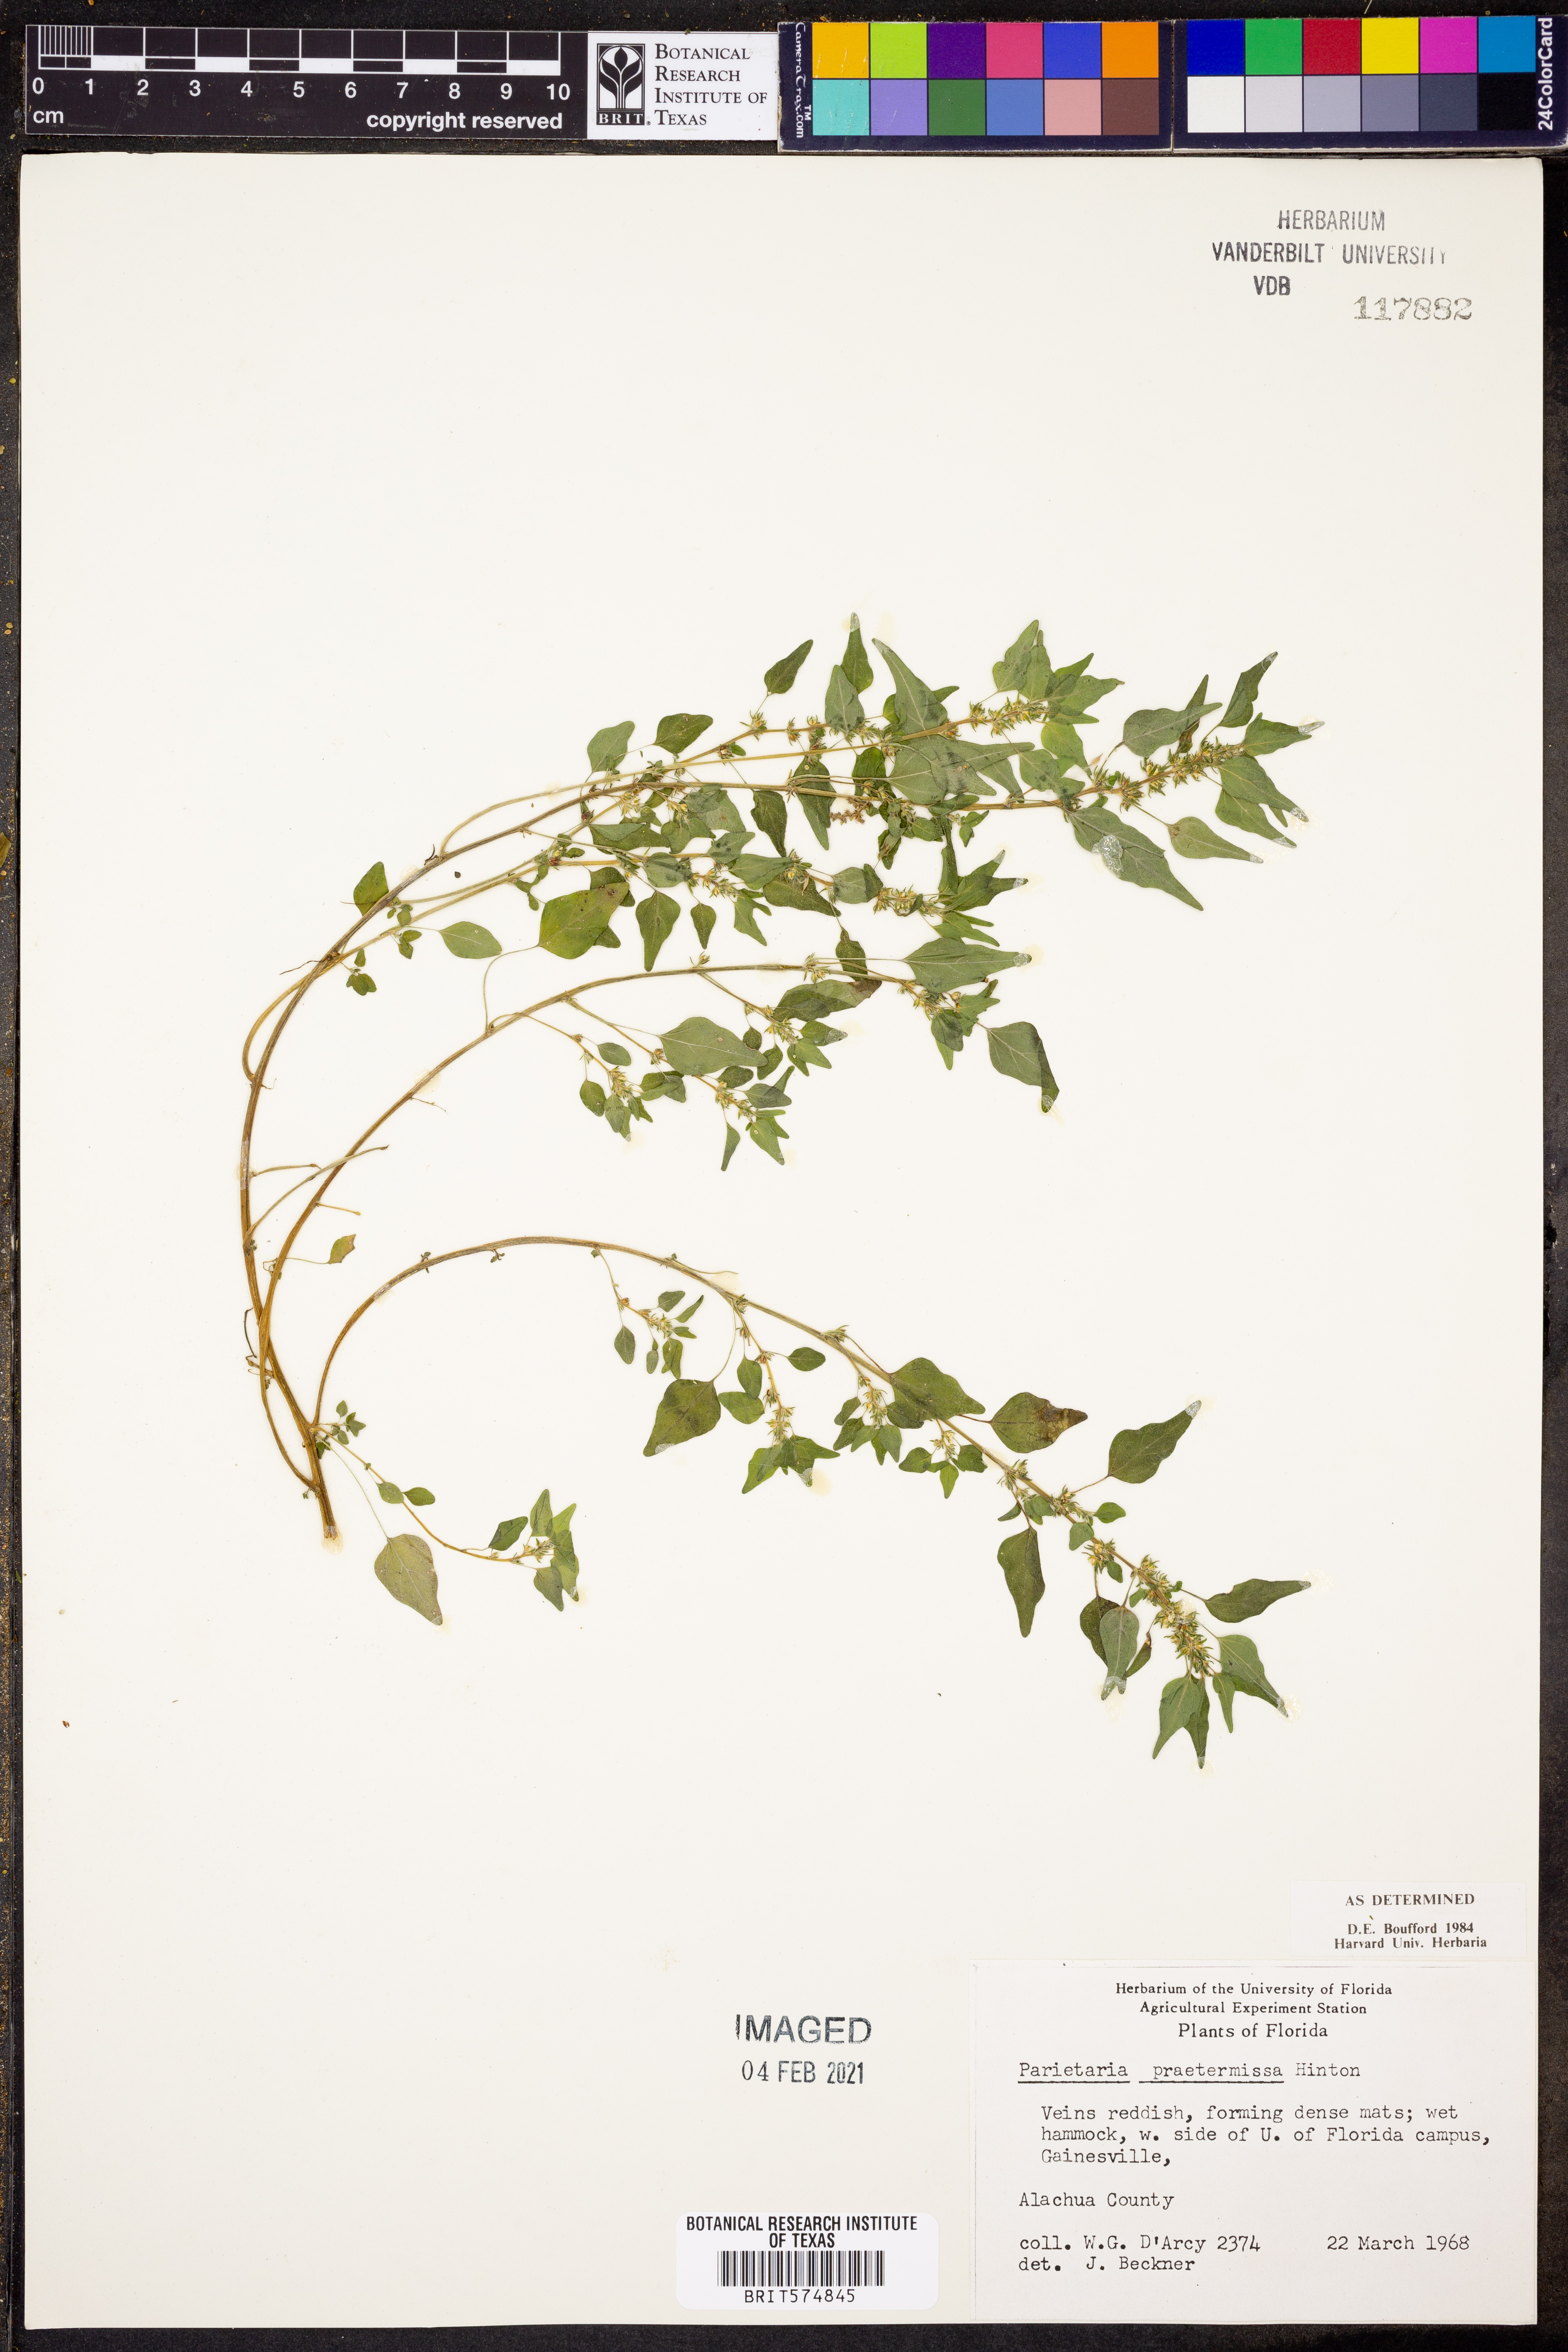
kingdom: Plantae
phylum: Tracheophyta
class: Magnoliopsida
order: Rosales
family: Urticaceae
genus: Parietaria
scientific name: Parietaria praetermissa
